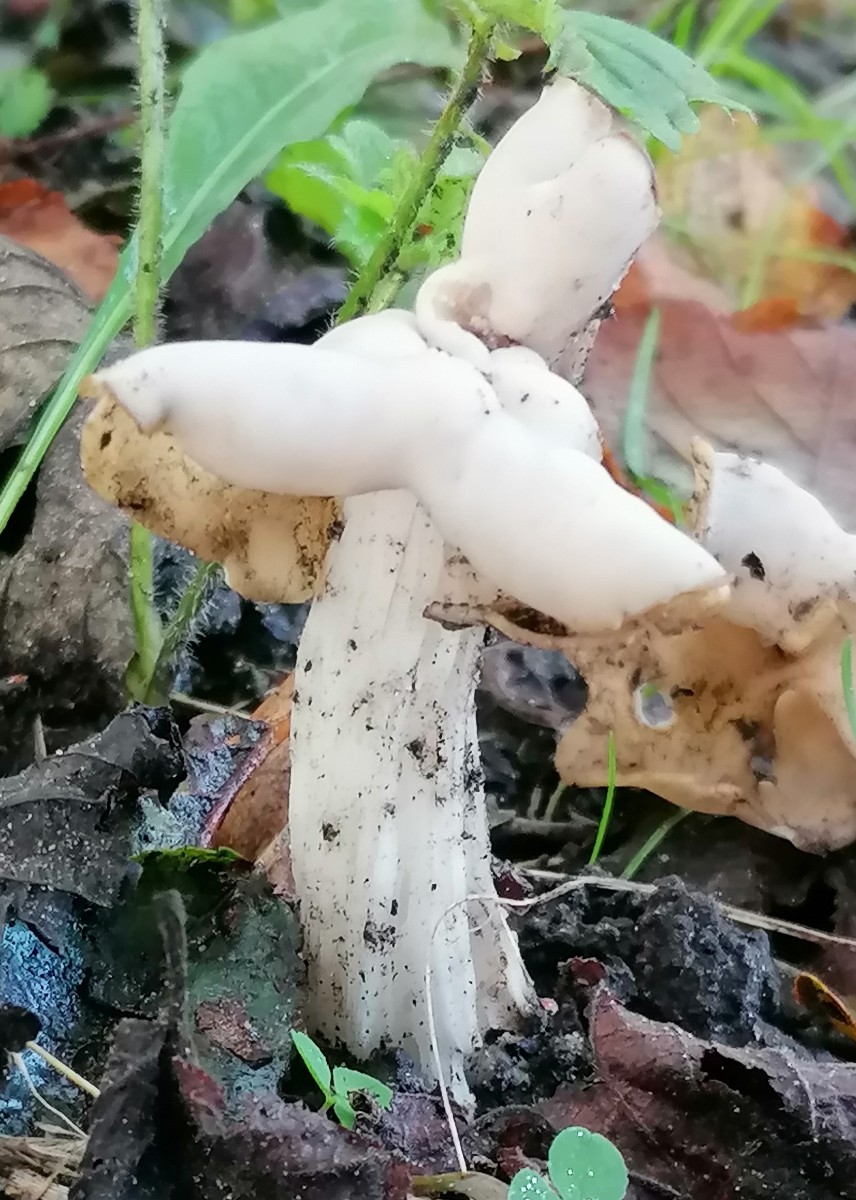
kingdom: Fungi
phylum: Ascomycota
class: Pezizomycetes
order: Pezizales
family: Helvellaceae
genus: Helvella
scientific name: Helvella crispa
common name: kruset foldhat
